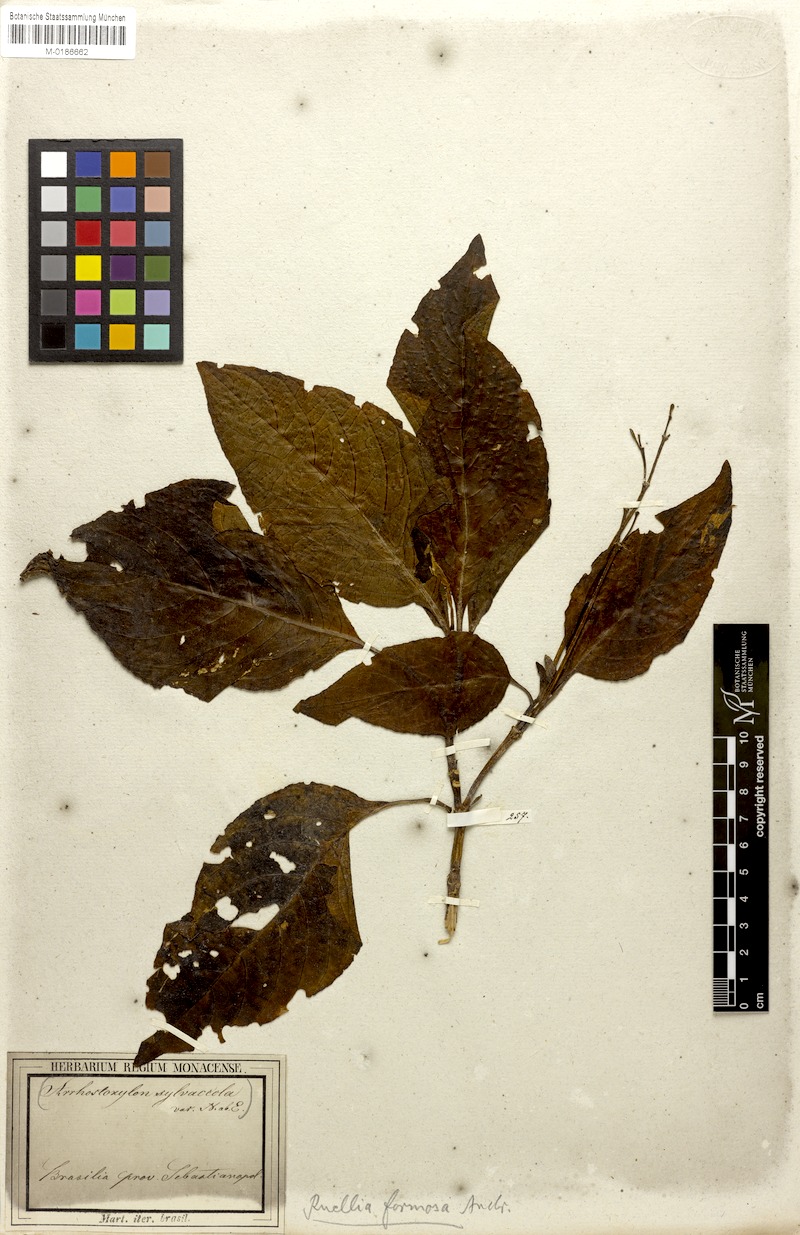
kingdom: Plantae
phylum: Tracheophyta
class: Magnoliopsida
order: Lamiales
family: Acanthaceae
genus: Ruellia
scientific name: Ruellia elegans
